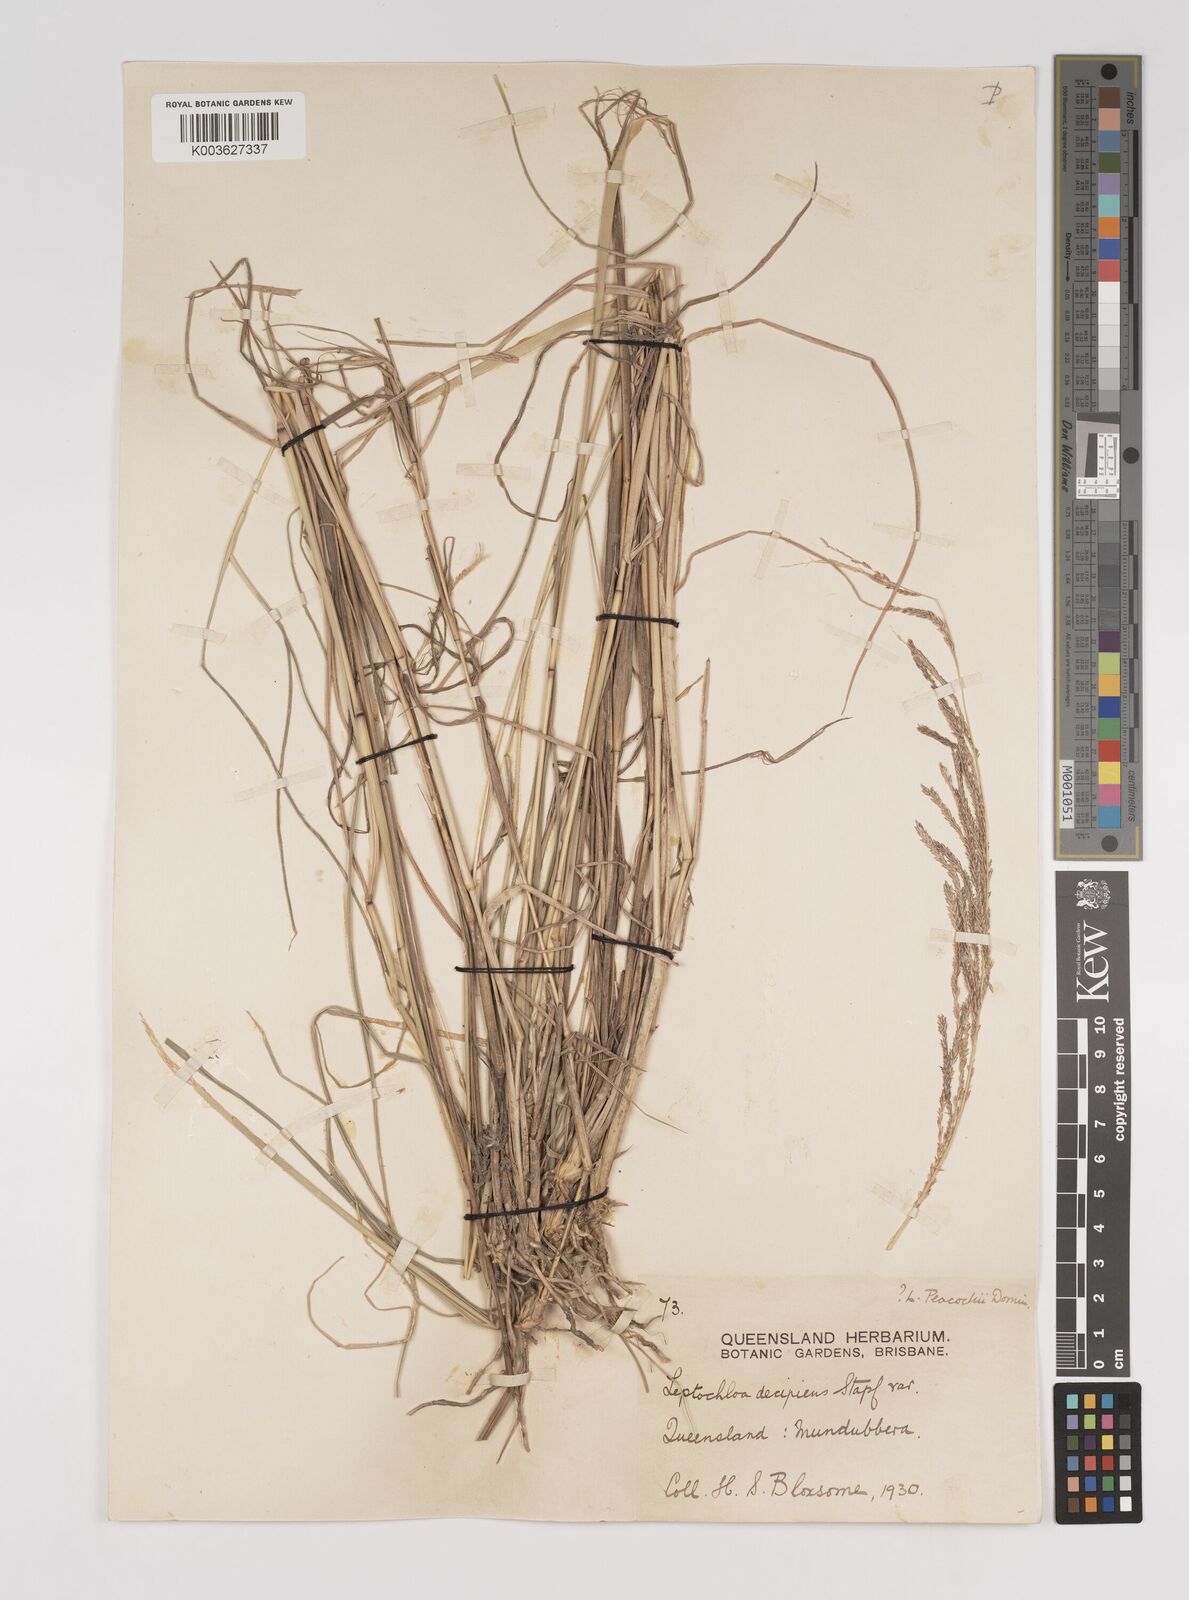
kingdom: Plantae
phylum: Tracheophyta
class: Liliopsida
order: Poales
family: Poaceae
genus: Leptochloa
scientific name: Leptochloa decipiens
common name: Australian sprangletop
